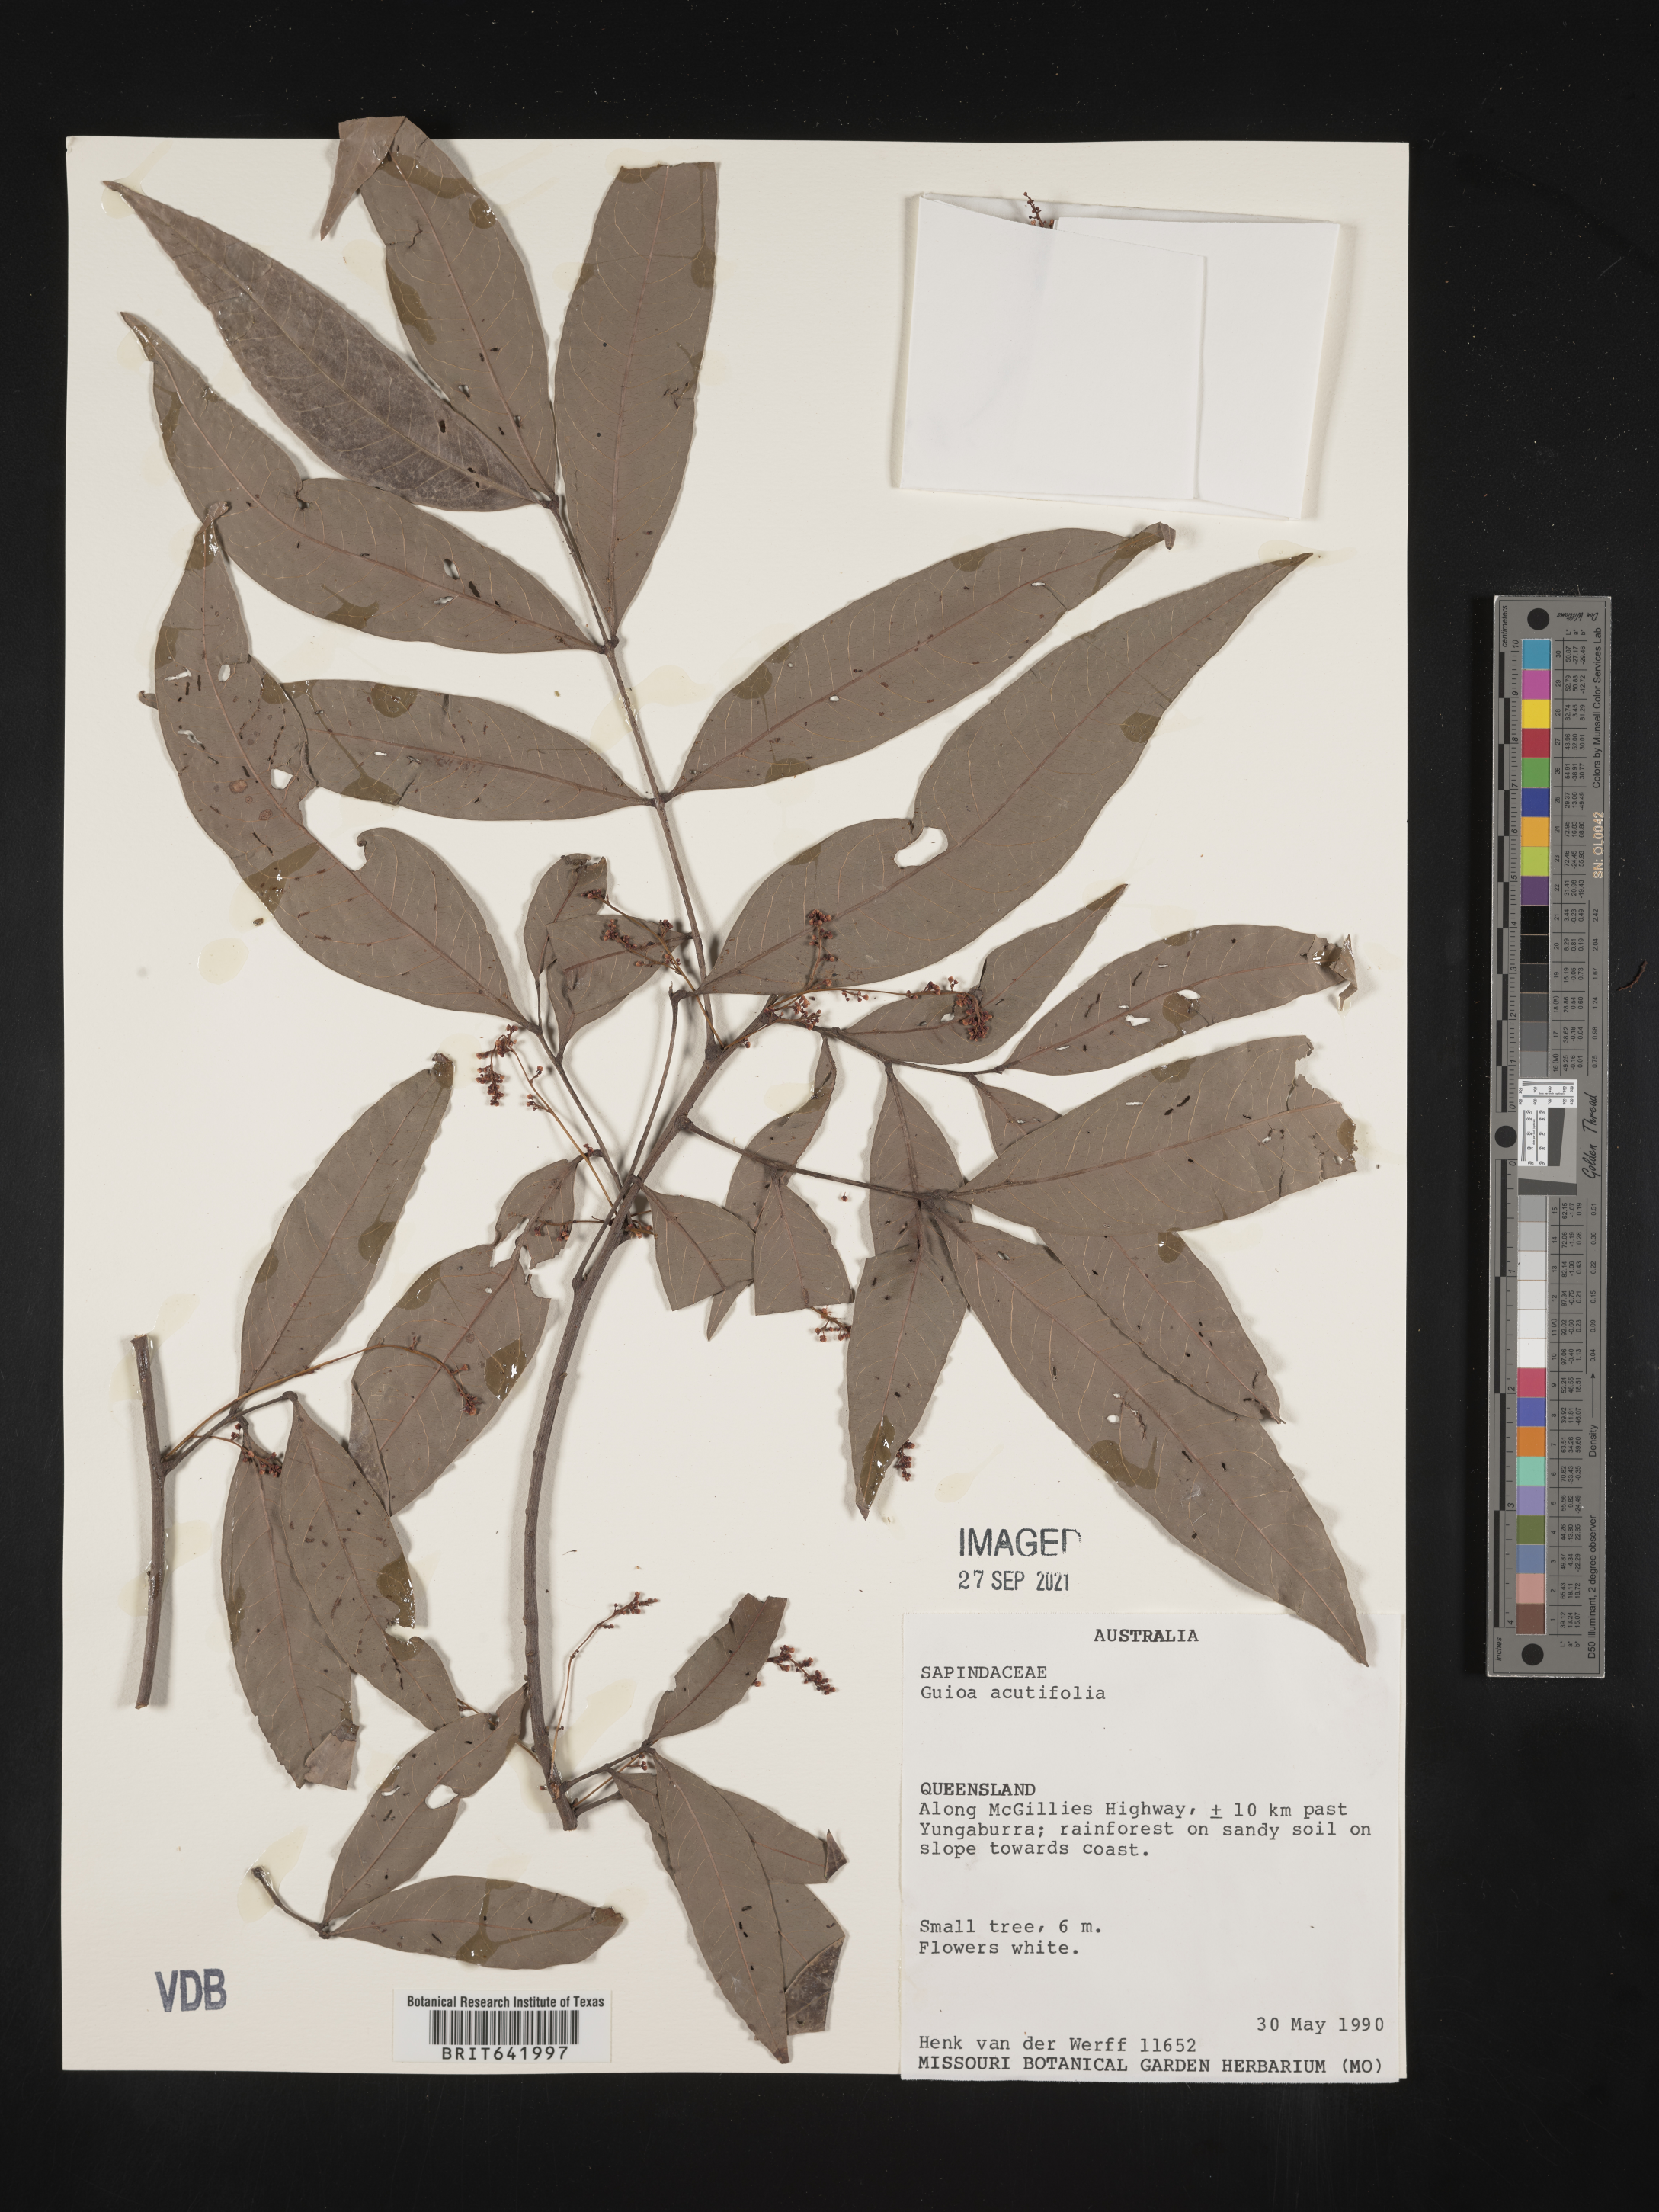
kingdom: Plantae
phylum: Tracheophyta
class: Magnoliopsida
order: Sapindales
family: Sapindaceae
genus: Guioa
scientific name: Guioa
